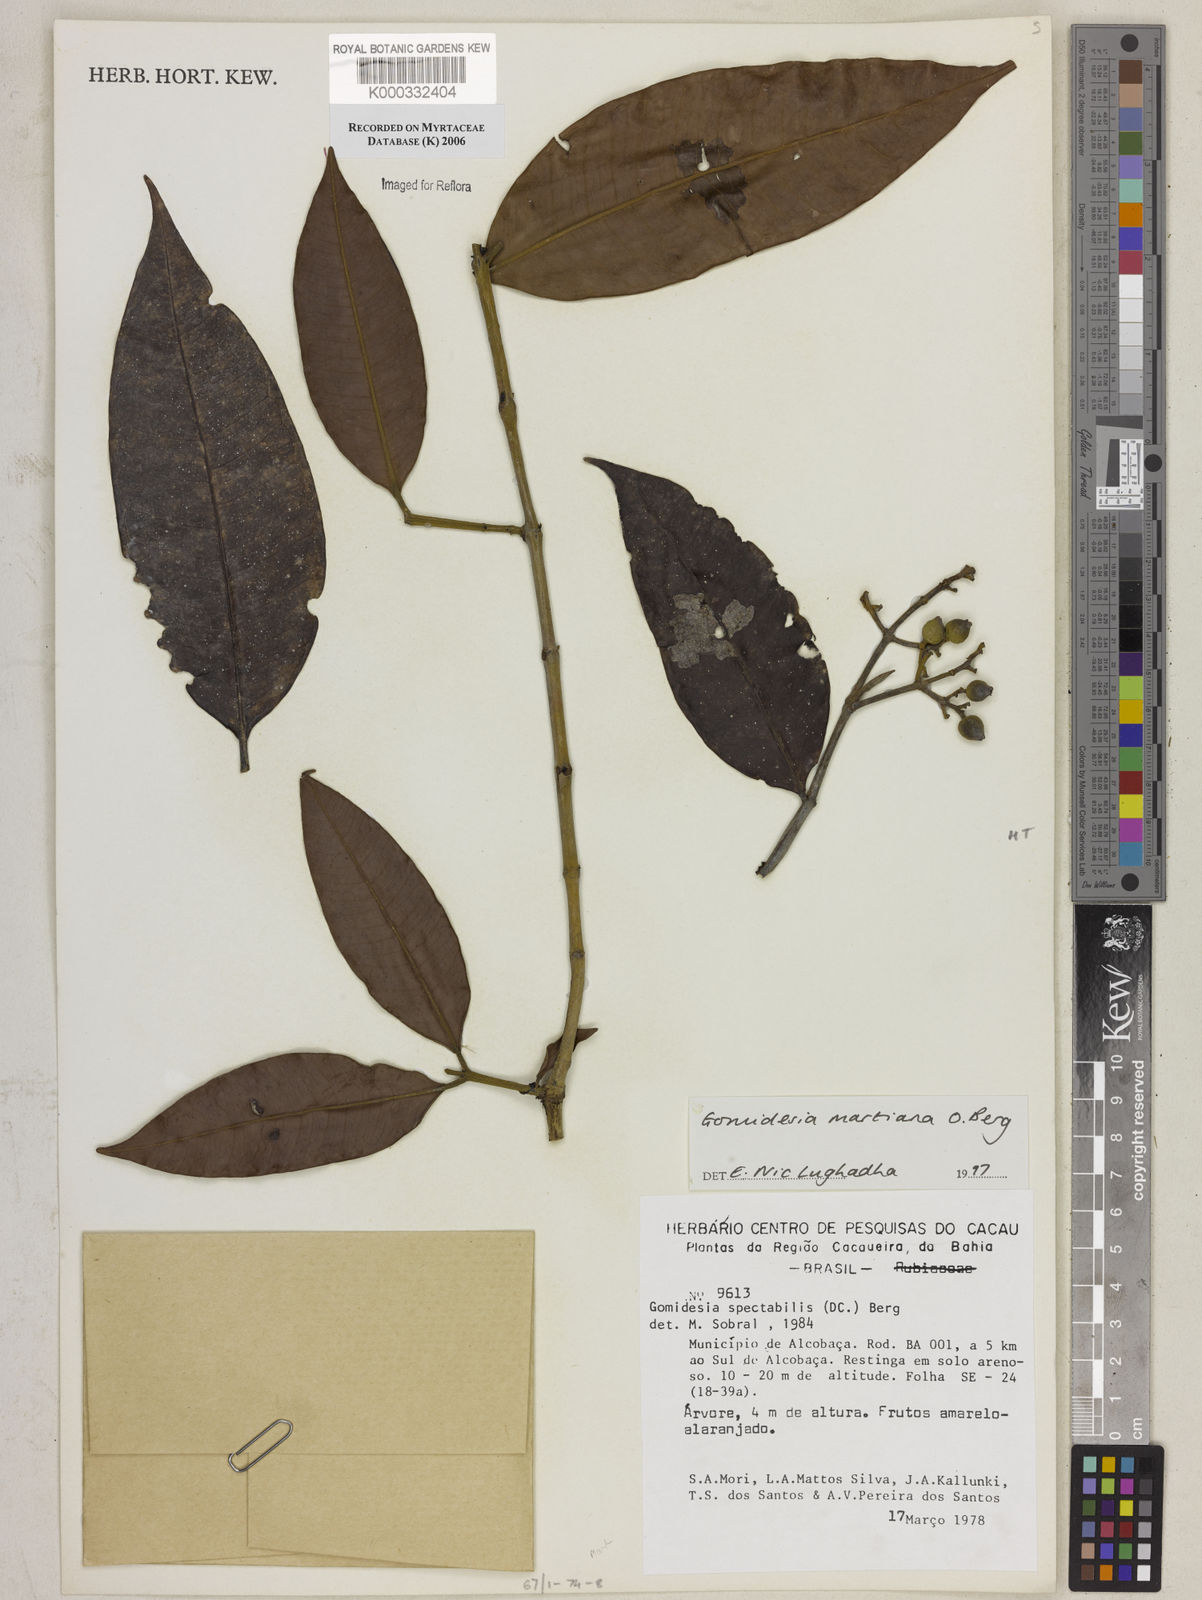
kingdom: Plantae
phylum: Tracheophyta
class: Magnoliopsida
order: Myrtales
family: Myrtaceae
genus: Myrcia
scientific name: Myrcia vittoriana
